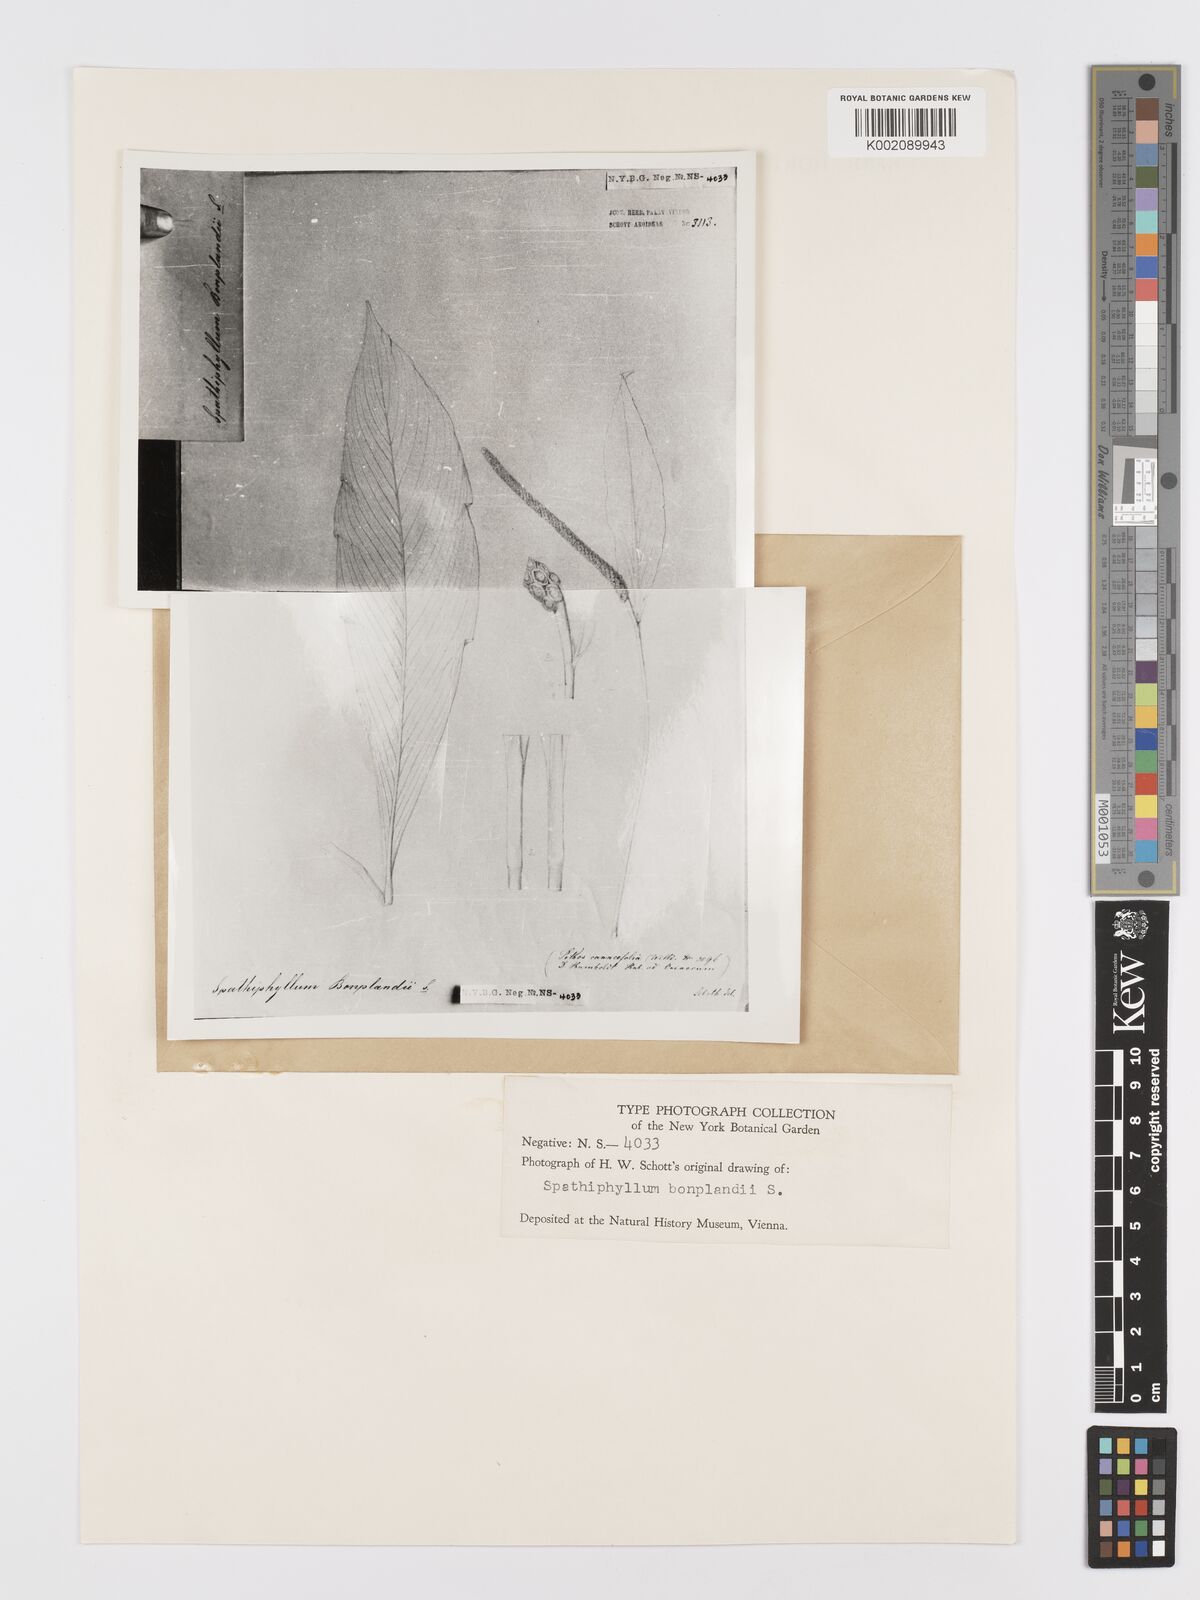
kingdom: Plantae
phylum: Tracheophyta
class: Liliopsida
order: Alismatales
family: Araceae
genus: Spathiphyllum
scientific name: Spathiphyllum cannifolium
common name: Spatheflower
